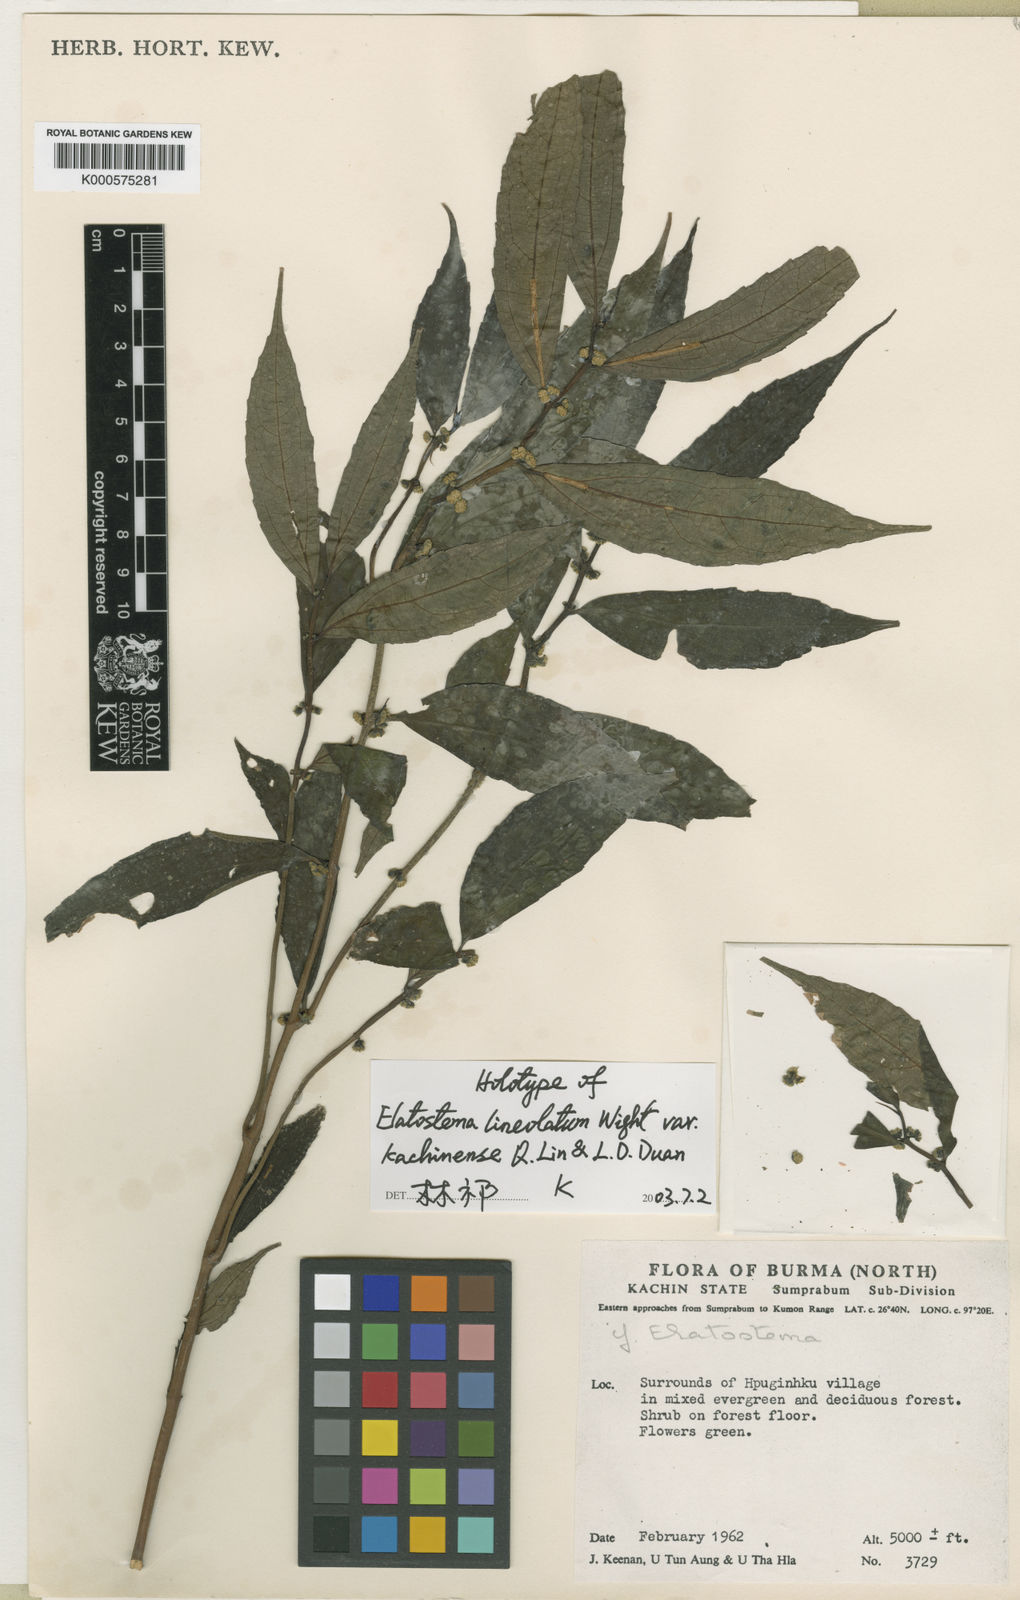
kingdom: Plantae
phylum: Tracheophyta
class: Magnoliopsida
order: Rosales
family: Urticaceae
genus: Elatostema
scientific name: Elatostema lineolatum
